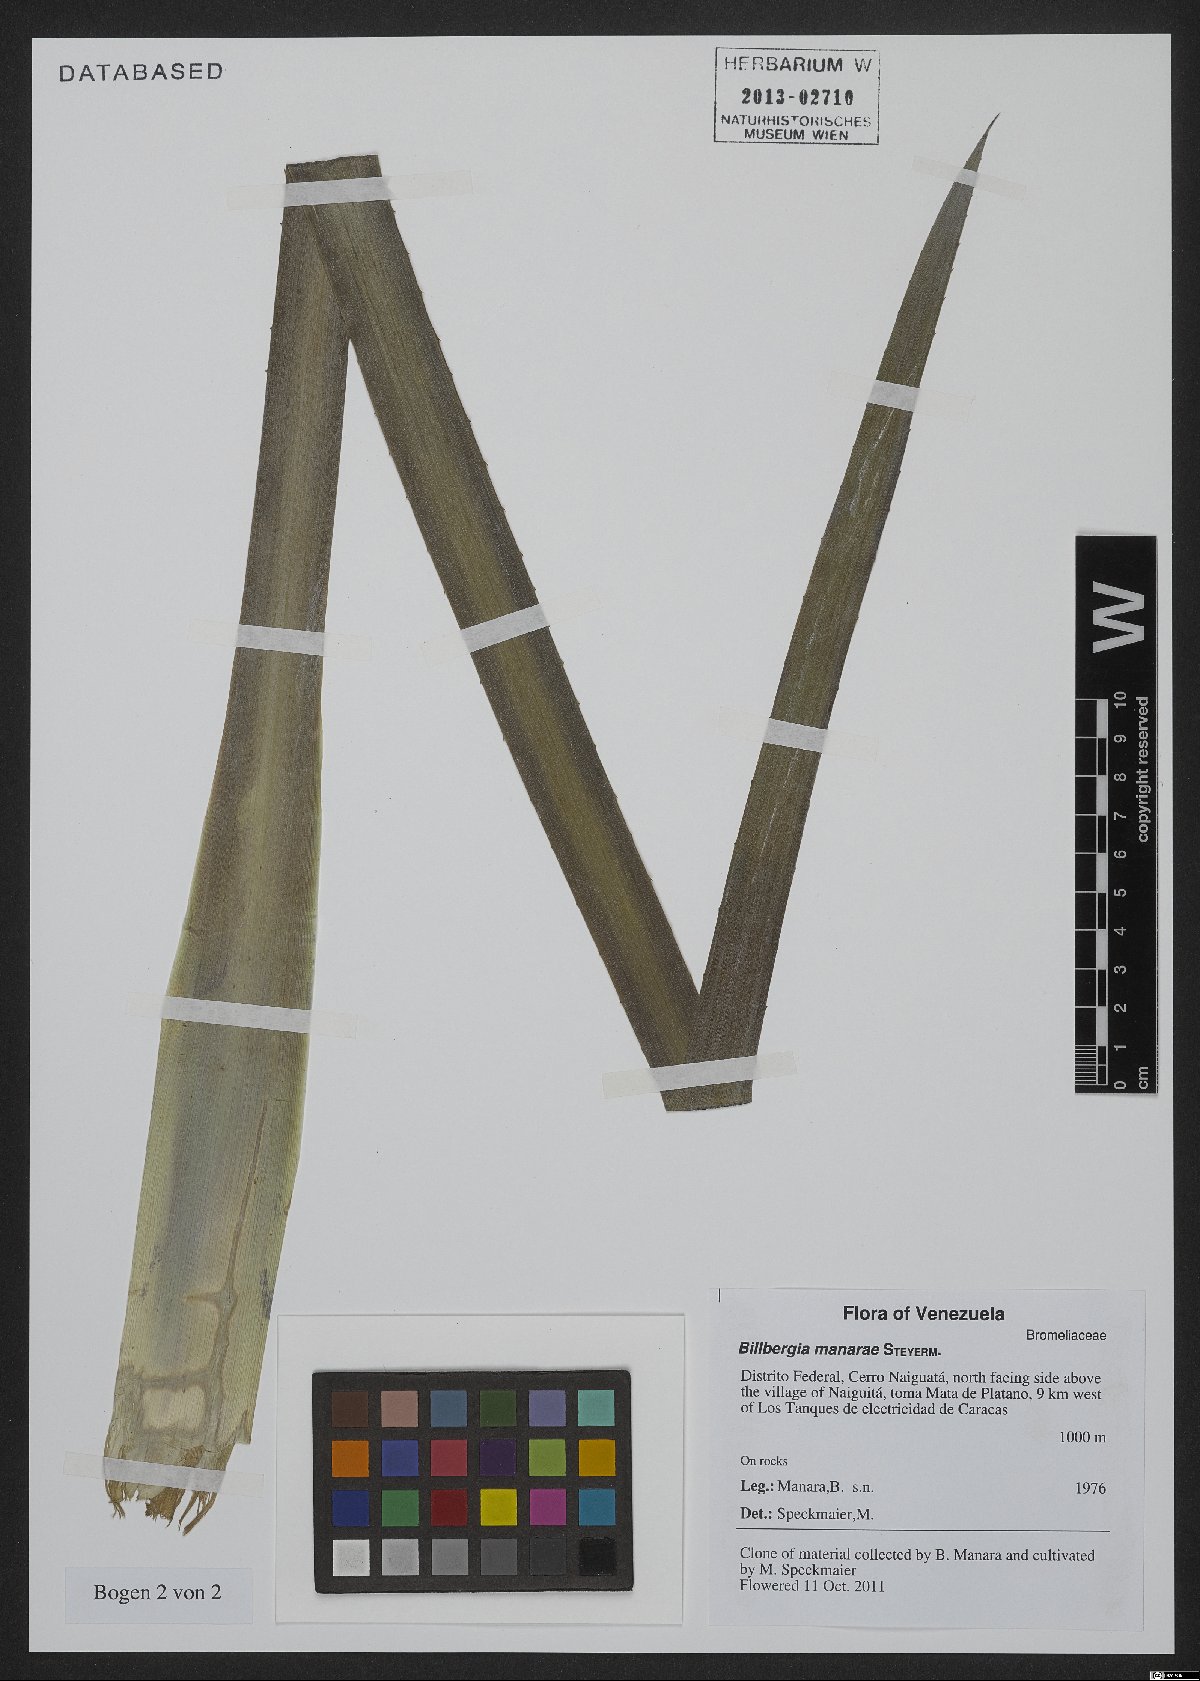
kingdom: Plantae
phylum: Tracheophyta
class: Liliopsida
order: Poales
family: Bromeliaceae
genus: Billbergia
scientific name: Billbergia manarae
